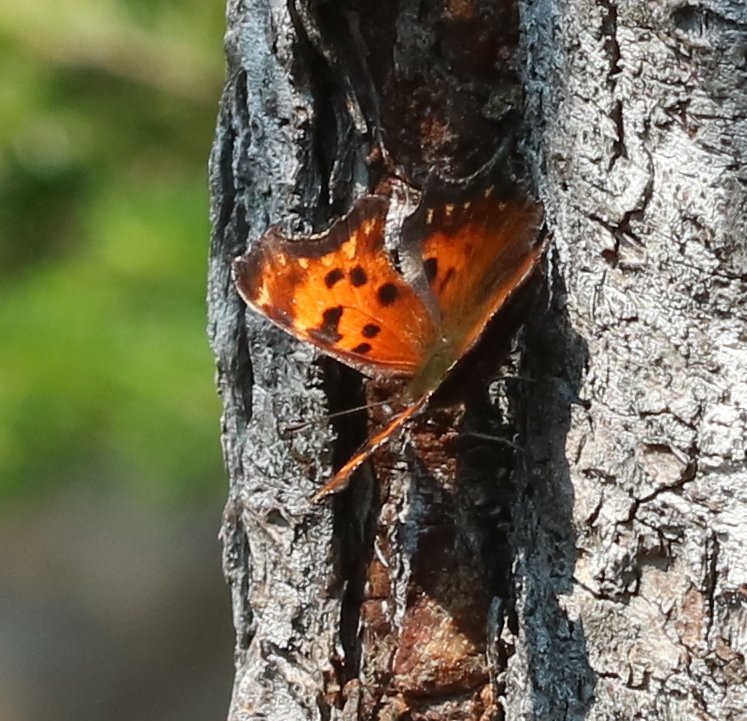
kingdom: Animalia
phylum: Arthropoda
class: Insecta
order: Lepidoptera
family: Nymphalidae
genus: Polygonia
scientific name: Polygonia gracilis
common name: Hoary Comma
